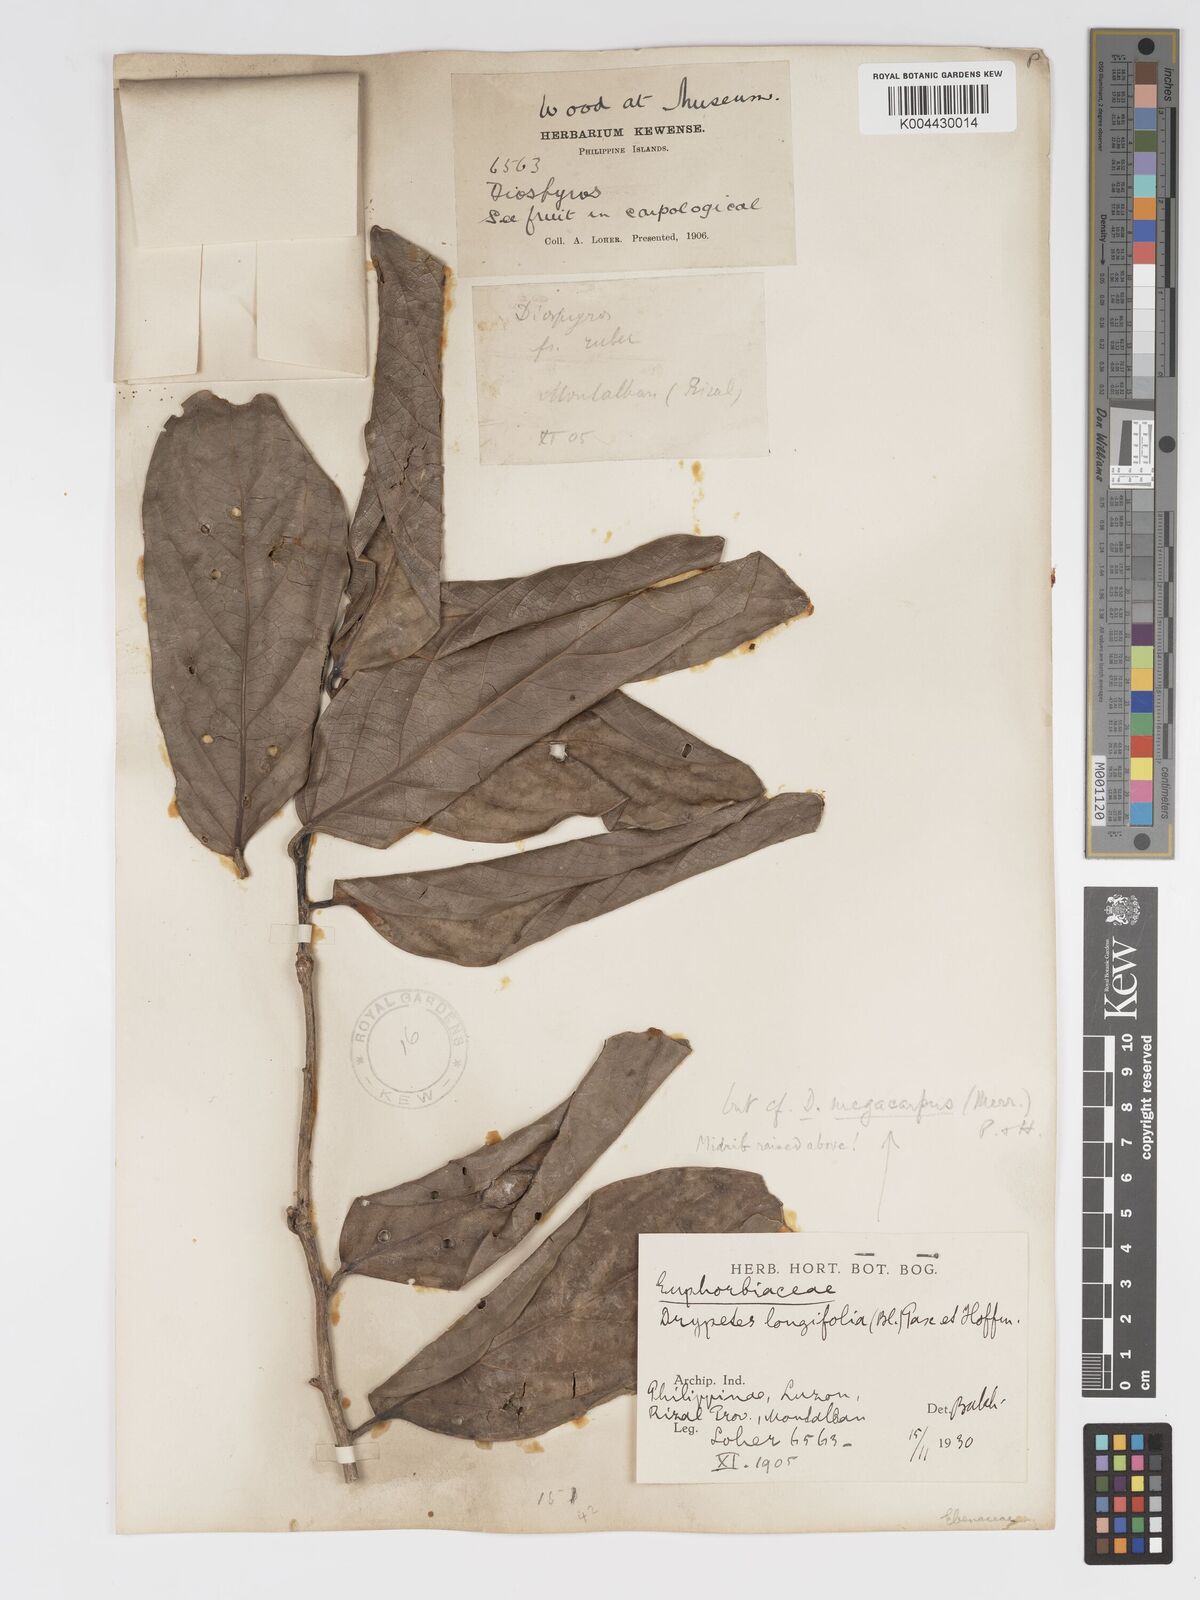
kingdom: Plantae
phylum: Tracheophyta
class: Magnoliopsida
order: Malpighiales
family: Putranjivaceae
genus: Drypetes
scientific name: Drypetes grandifolia
